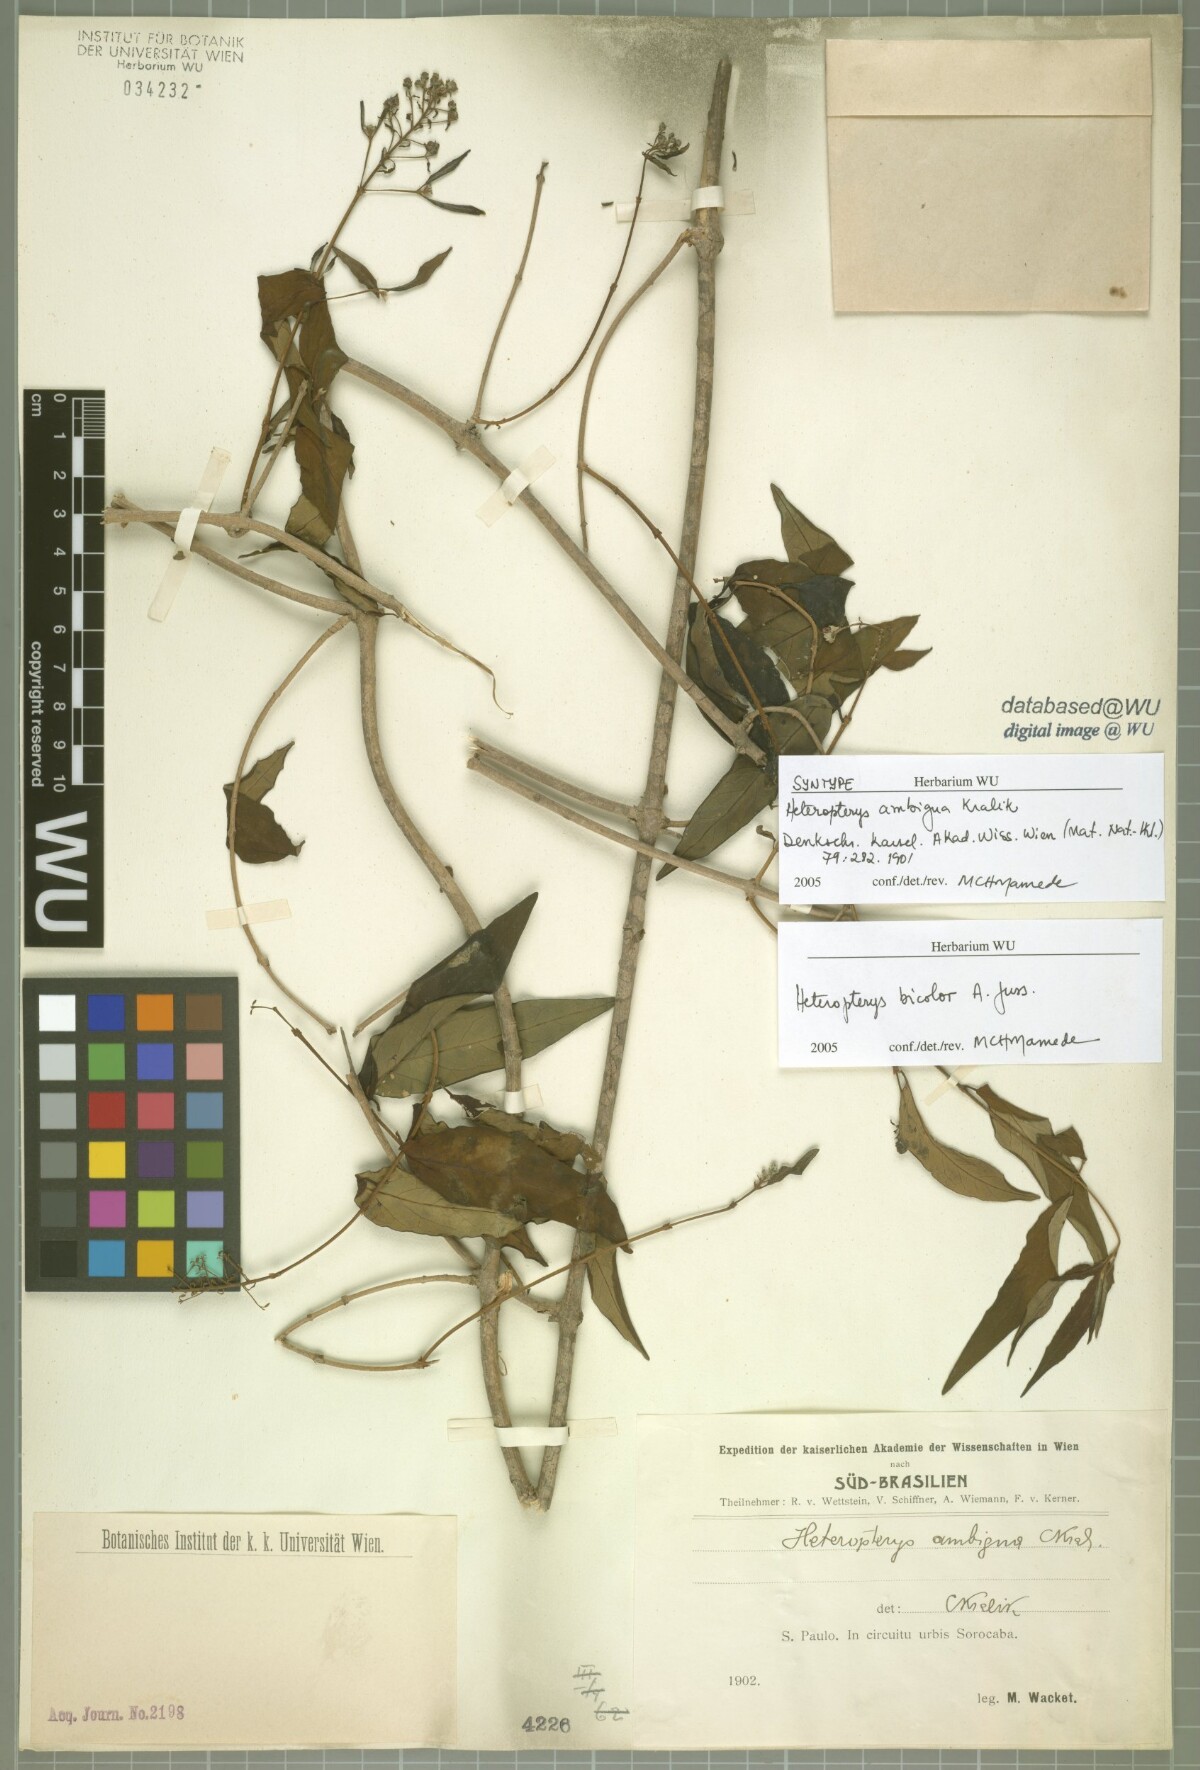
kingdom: Plantae
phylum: Tracheophyta
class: Magnoliopsida
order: Malpighiales
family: Malpighiaceae
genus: Heteropterys
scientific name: Heteropterys ambigua
